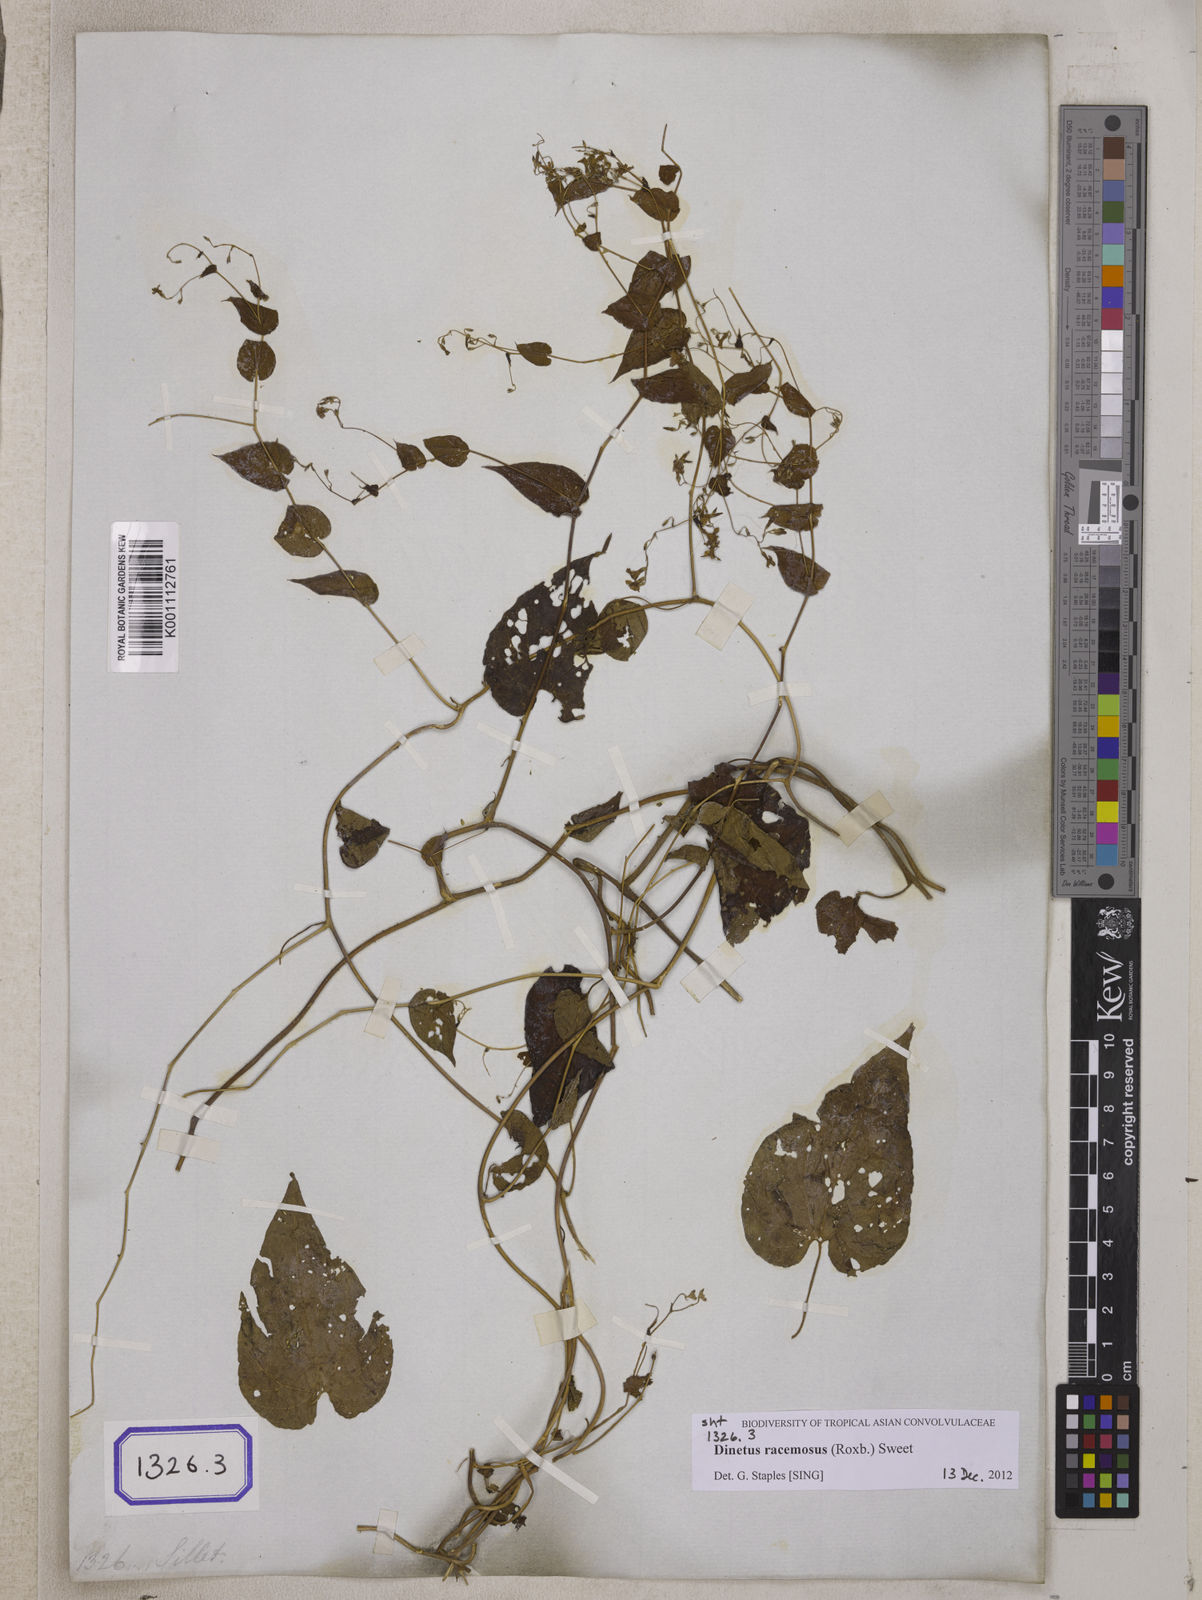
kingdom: Plantae
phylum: Tracheophyta
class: Magnoliopsida
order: Solanales
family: Convolvulaceae
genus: Porana
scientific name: Porana
